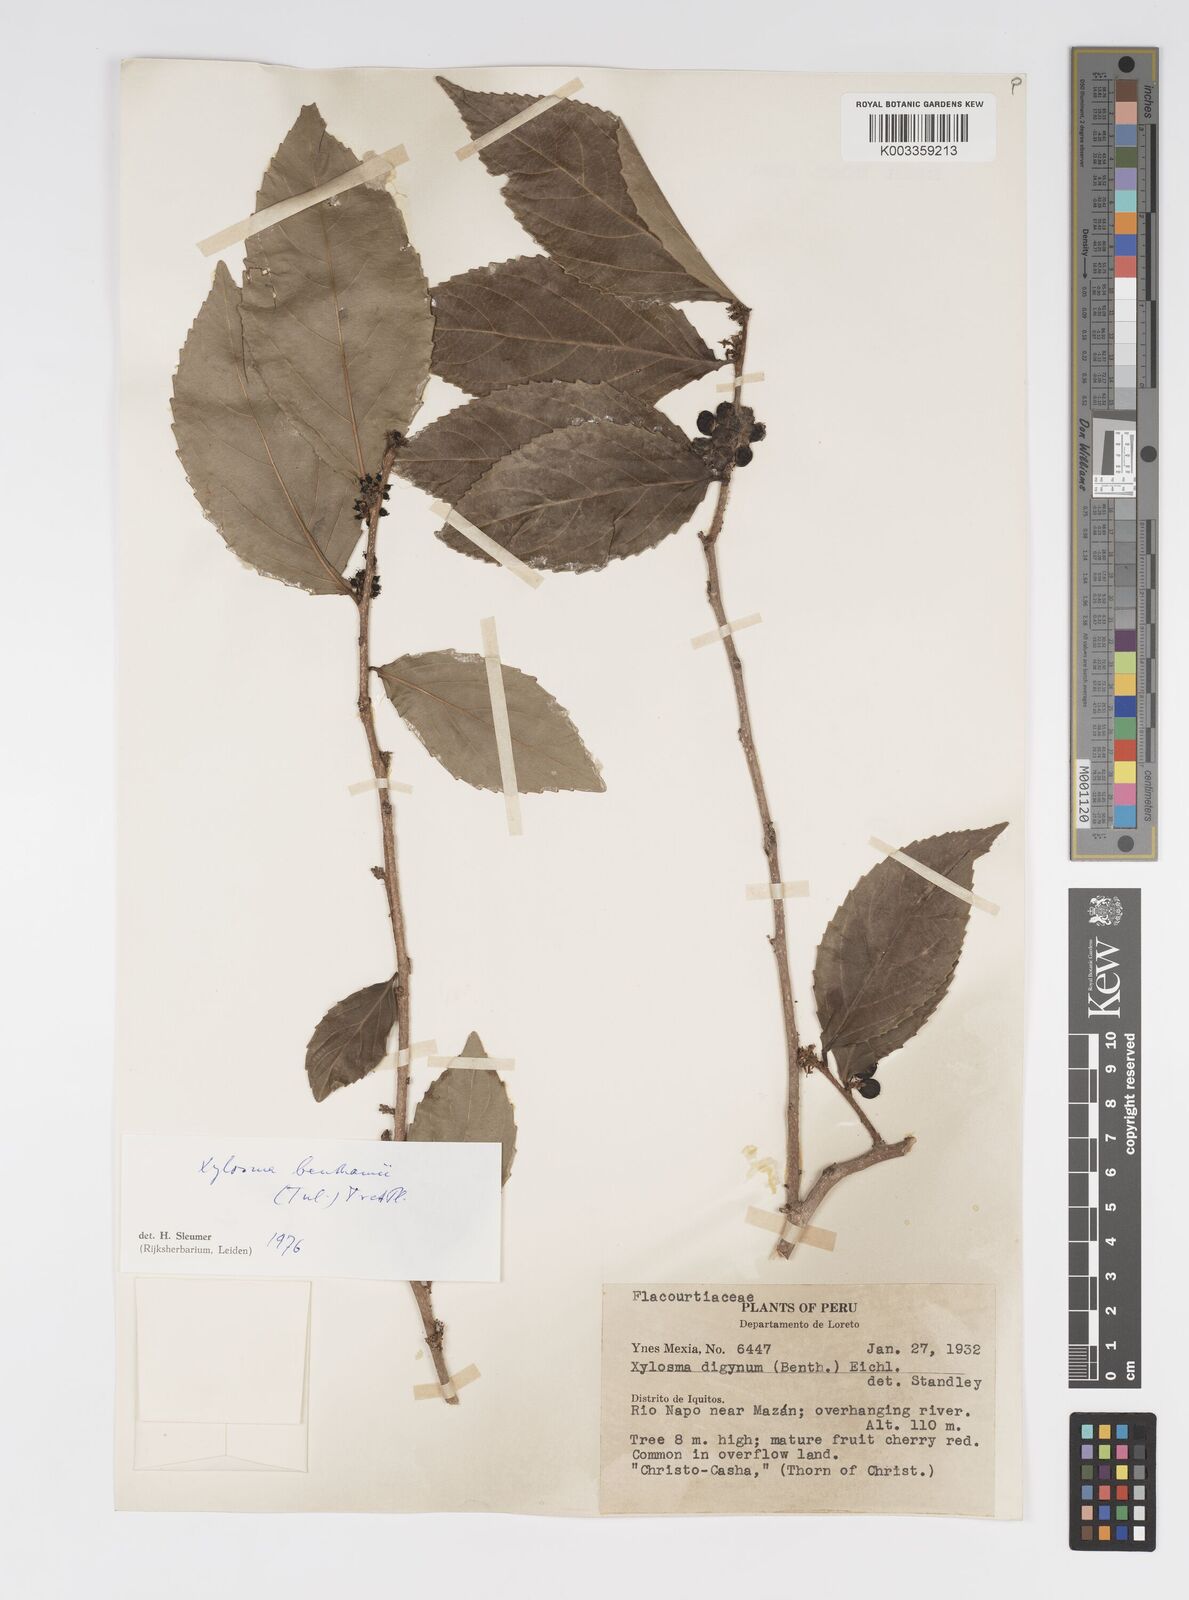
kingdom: Plantae
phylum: Tracheophyta
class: Magnoliopsida
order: Malpighiales
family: Salicaceae
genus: Xylosma
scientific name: Xylosma benthamii
